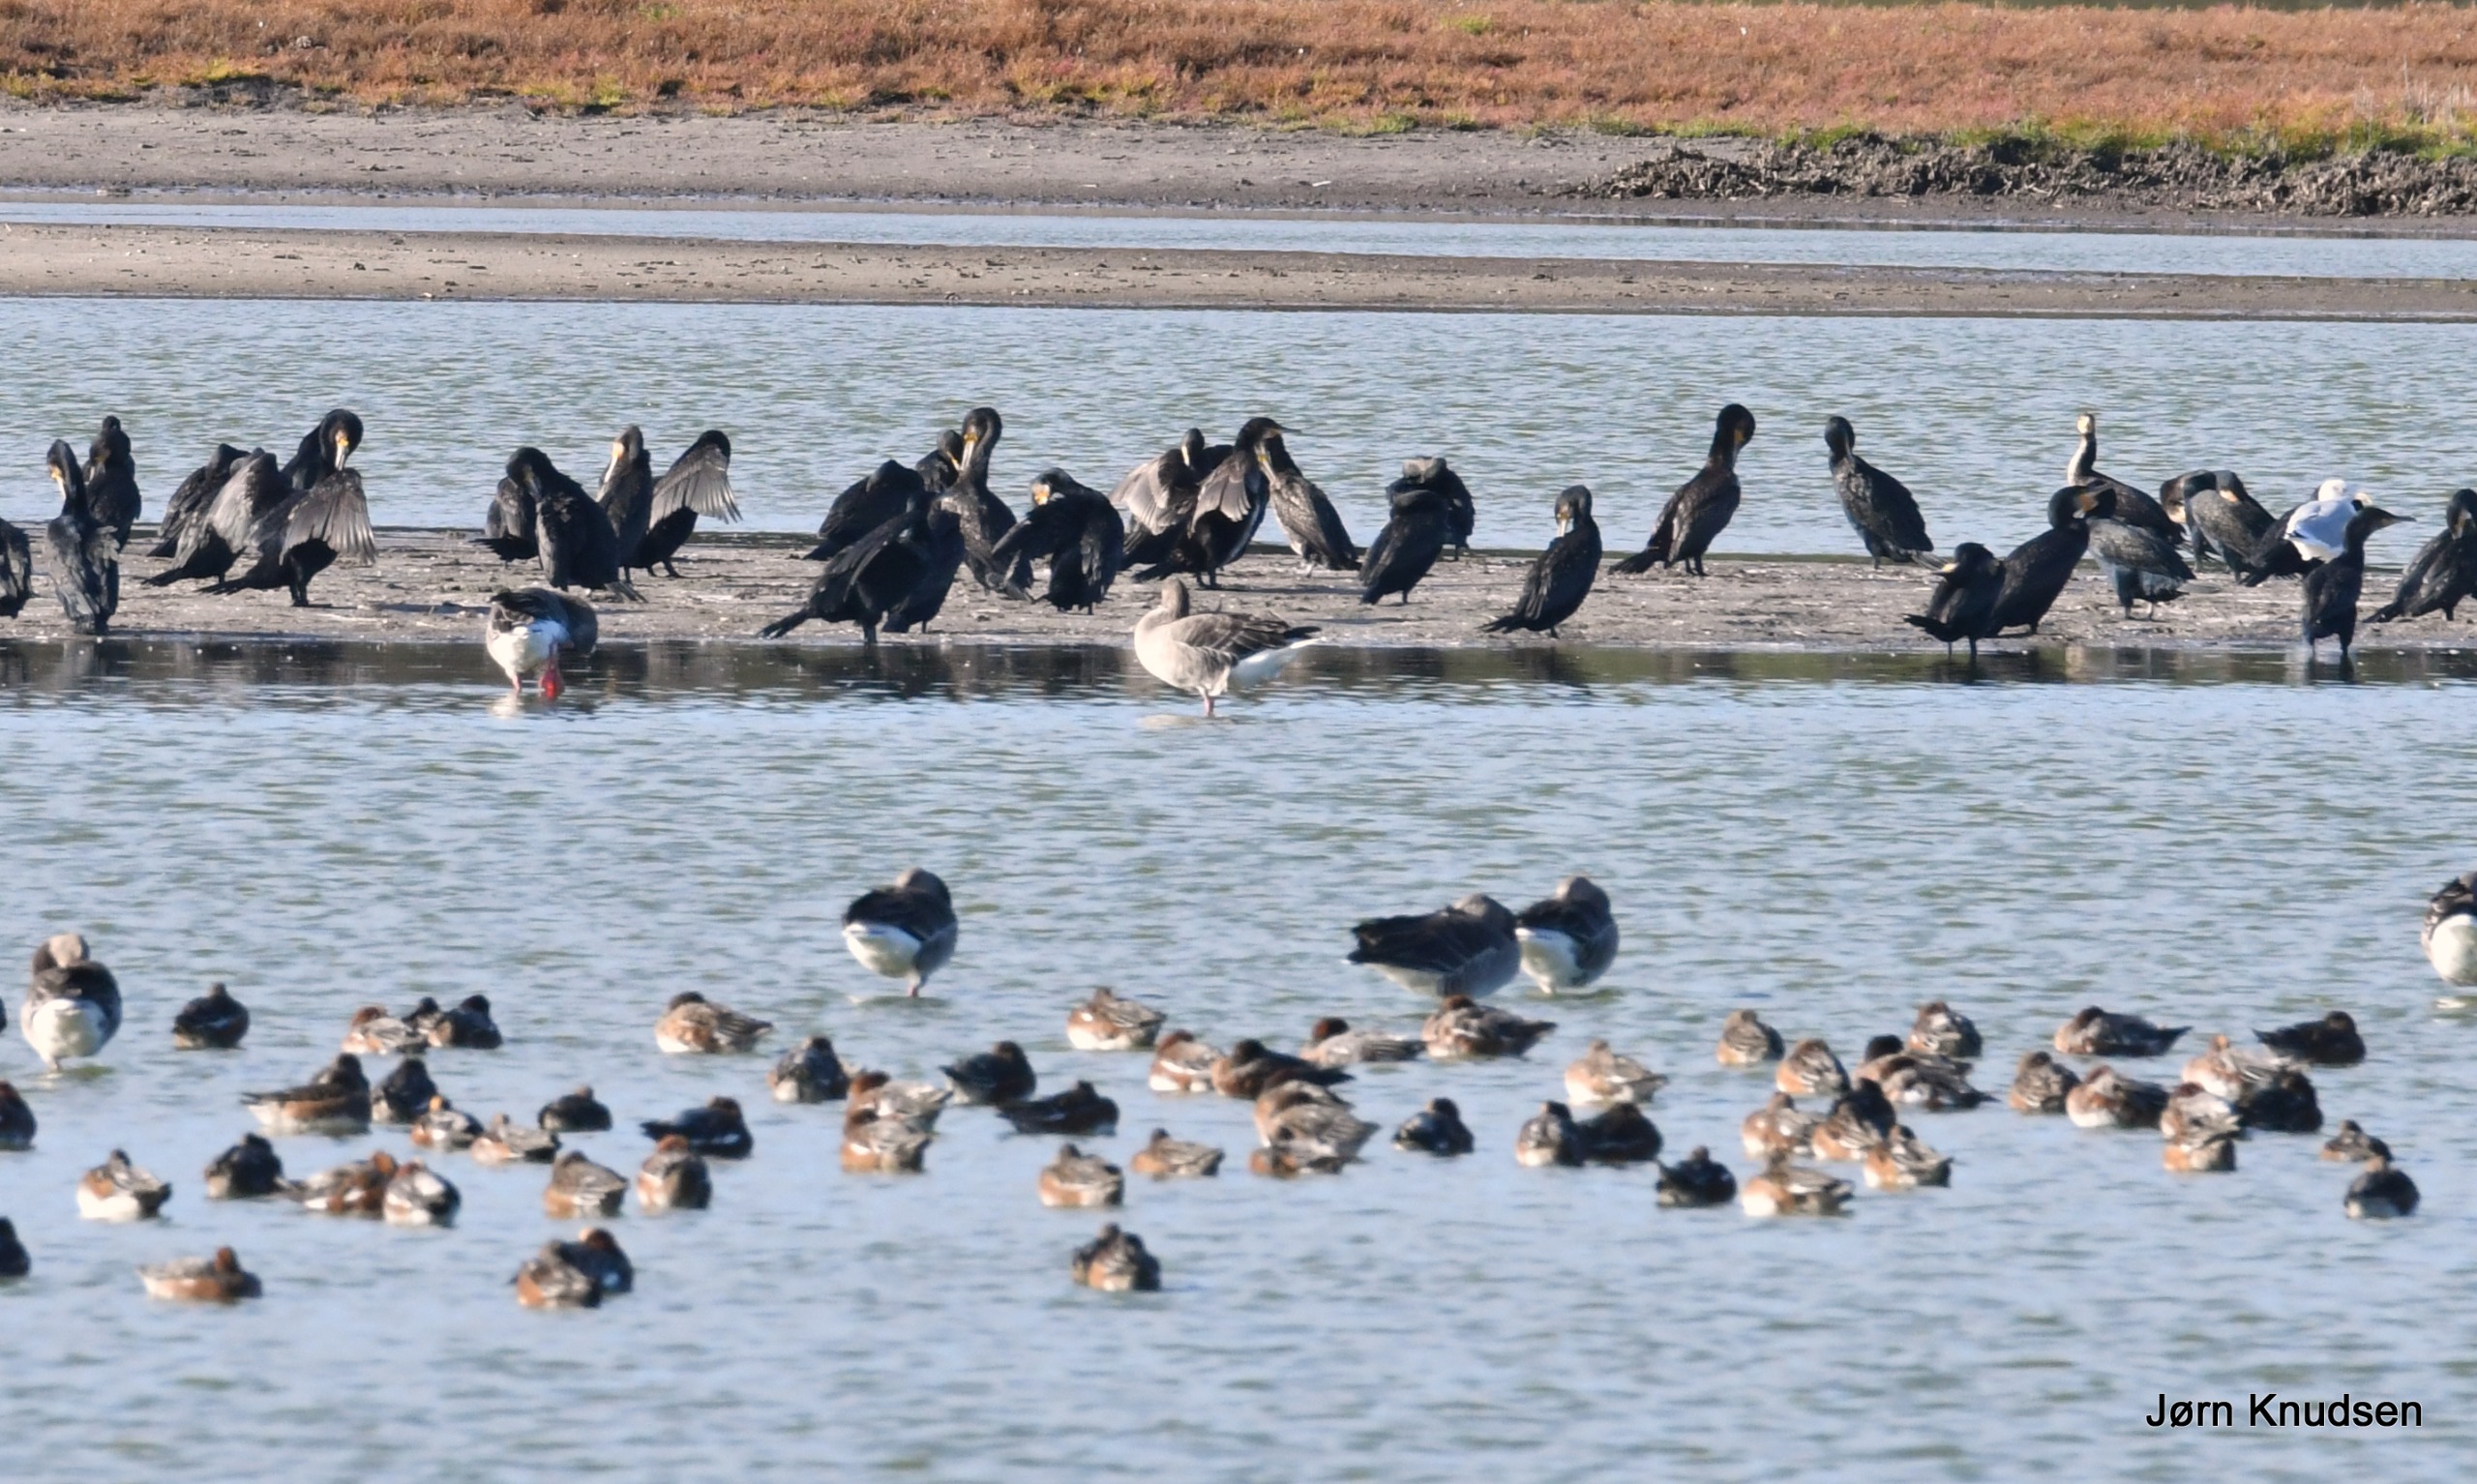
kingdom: Animalia
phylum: Chordata
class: Aves
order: Suliformes
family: Phalacrocoracidae
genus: Phalacrocorax
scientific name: Phalacrocorax carbo
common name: Skarv
